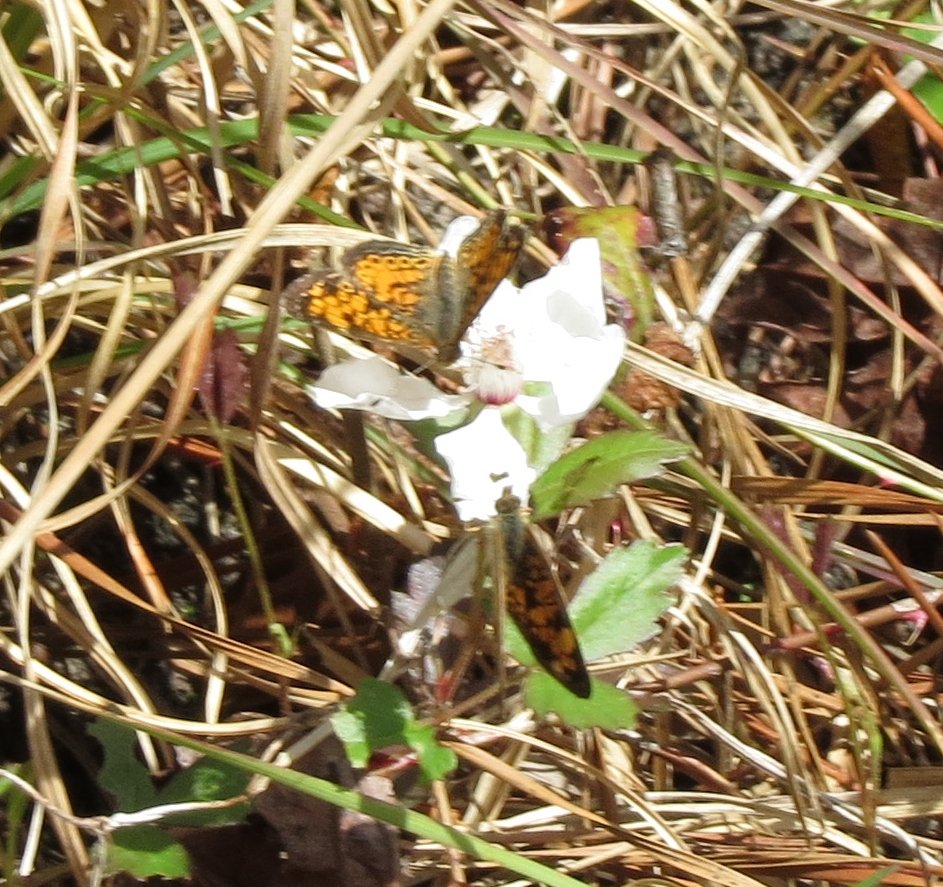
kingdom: Animalia
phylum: Arthropoda
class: Insecta
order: Lepidoptera
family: Nymphalidae
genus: Phyciodes
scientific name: Phyciodes tharos
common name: Pearl Crescent
